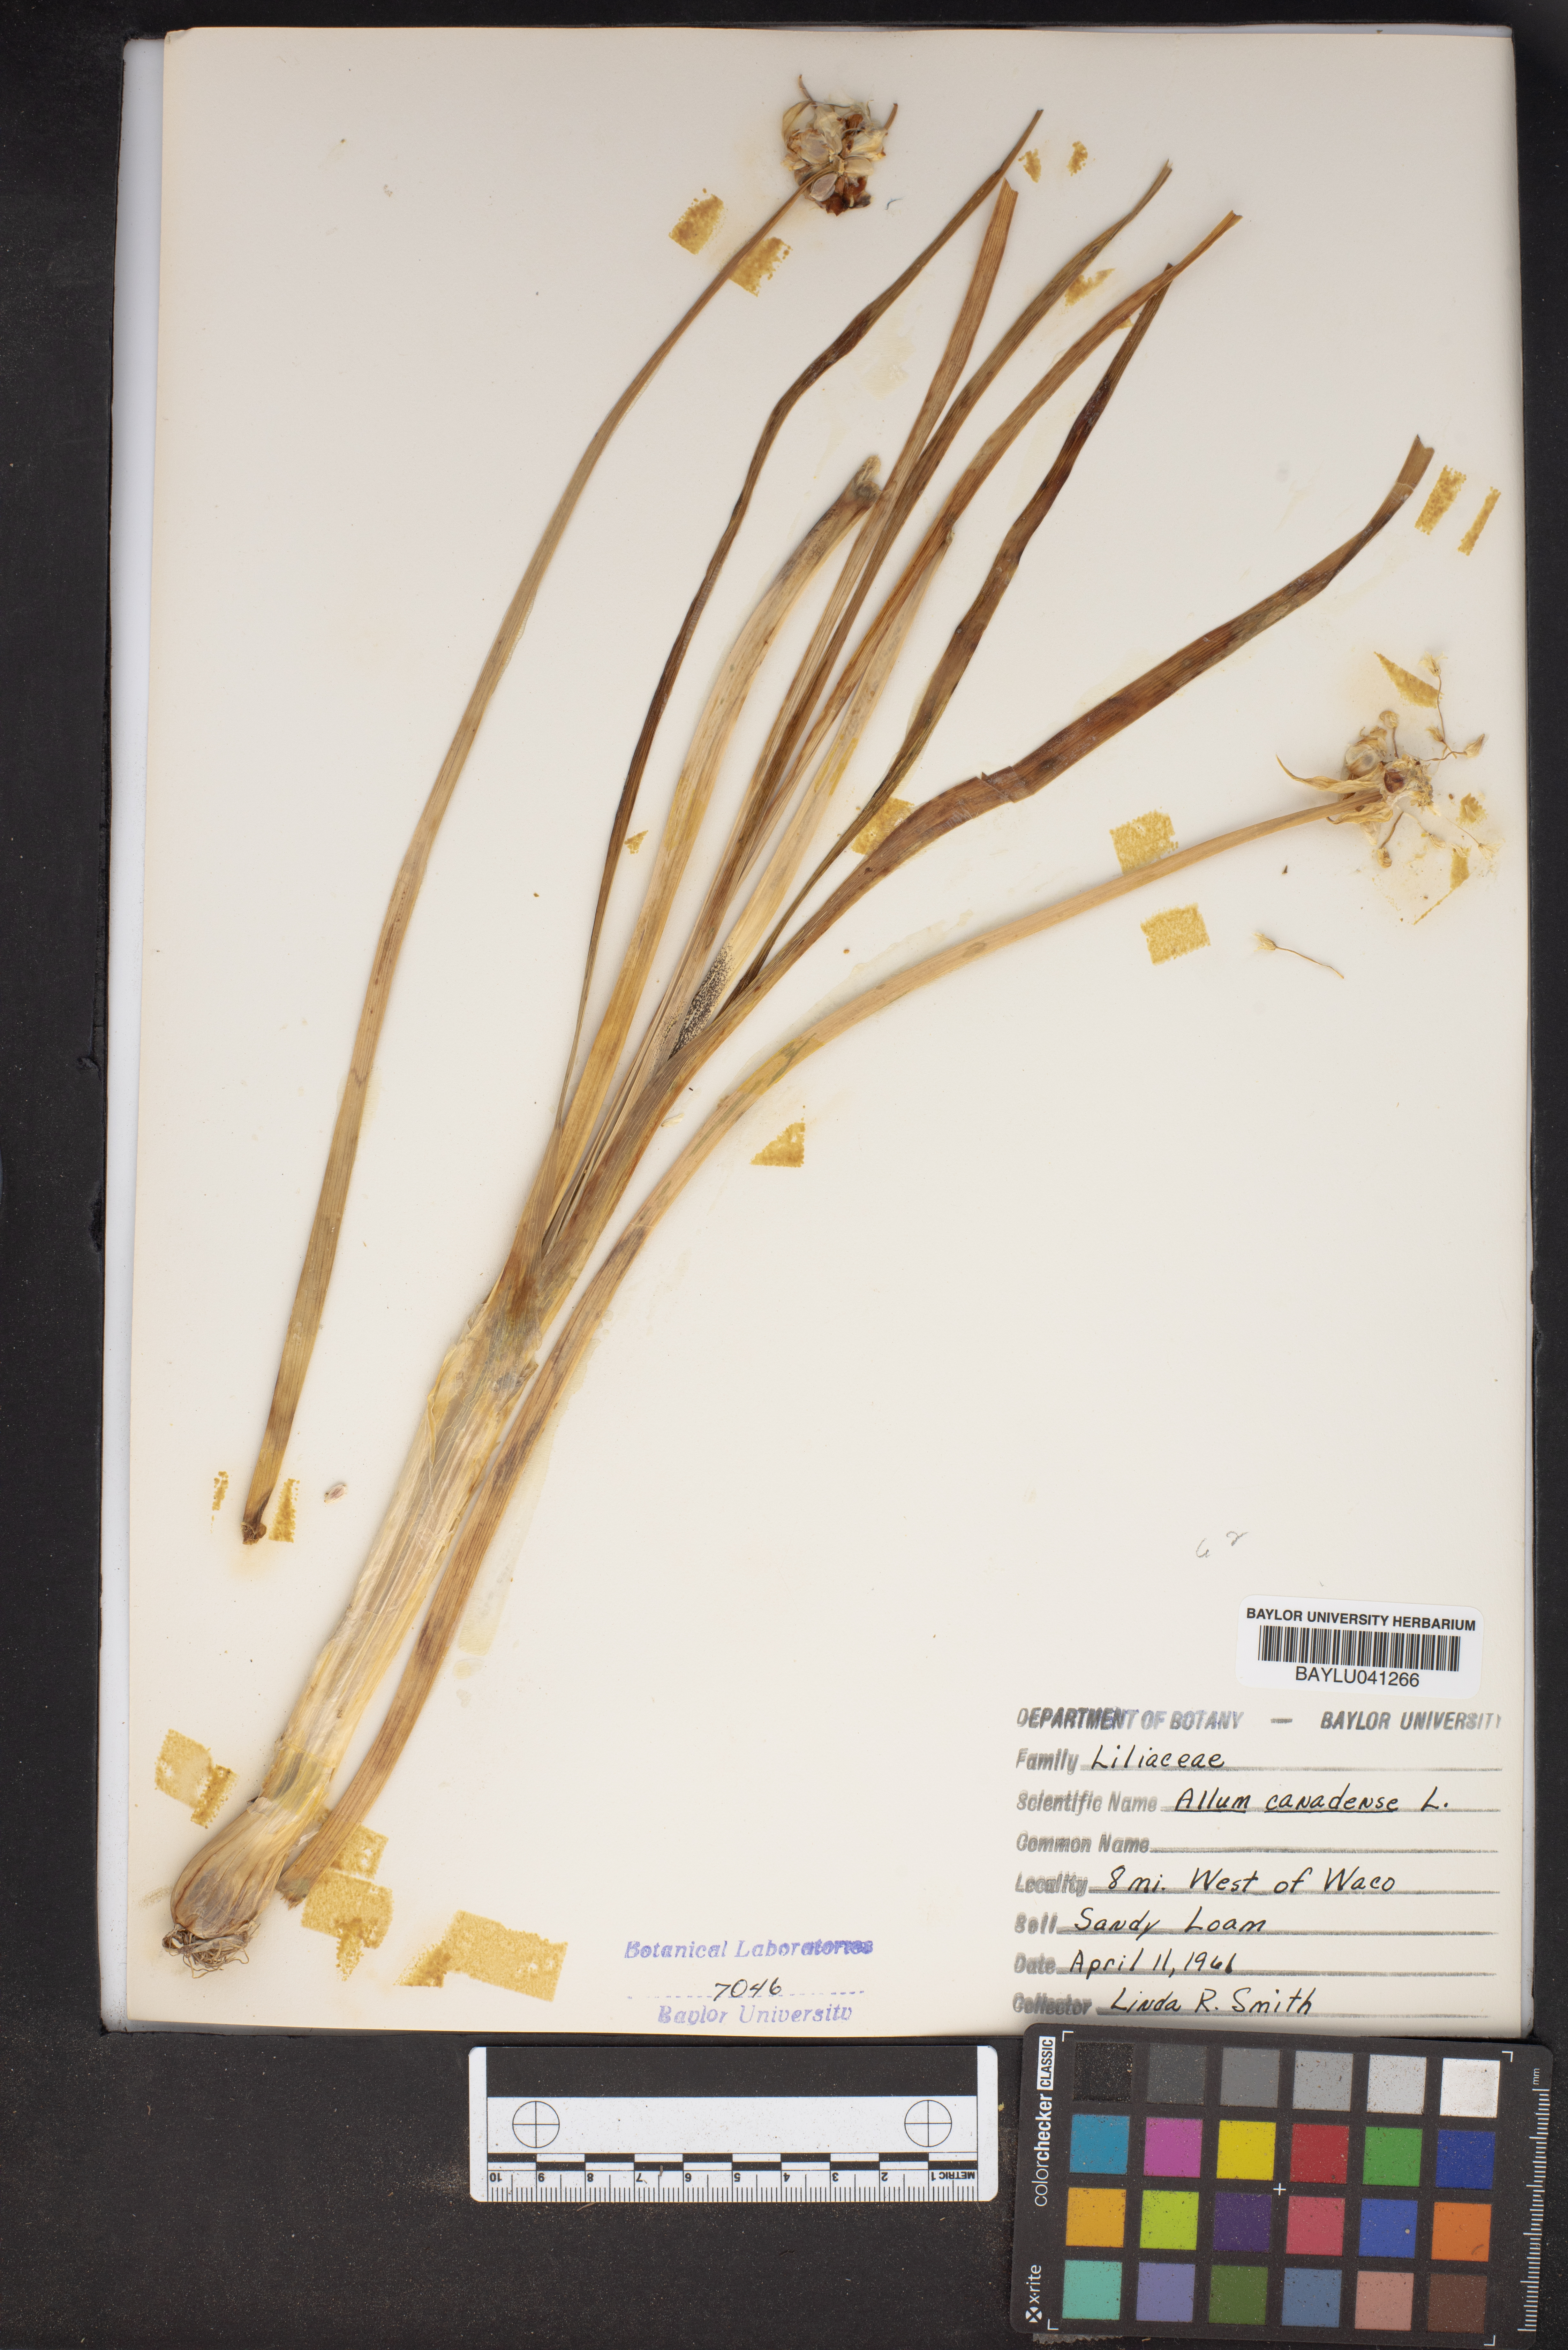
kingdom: Plantae
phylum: Tracheophyta
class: Liliopsida
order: Asparagales
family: Amaryllidaceae
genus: Allium
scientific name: Allium canadense
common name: Meadow garlic
